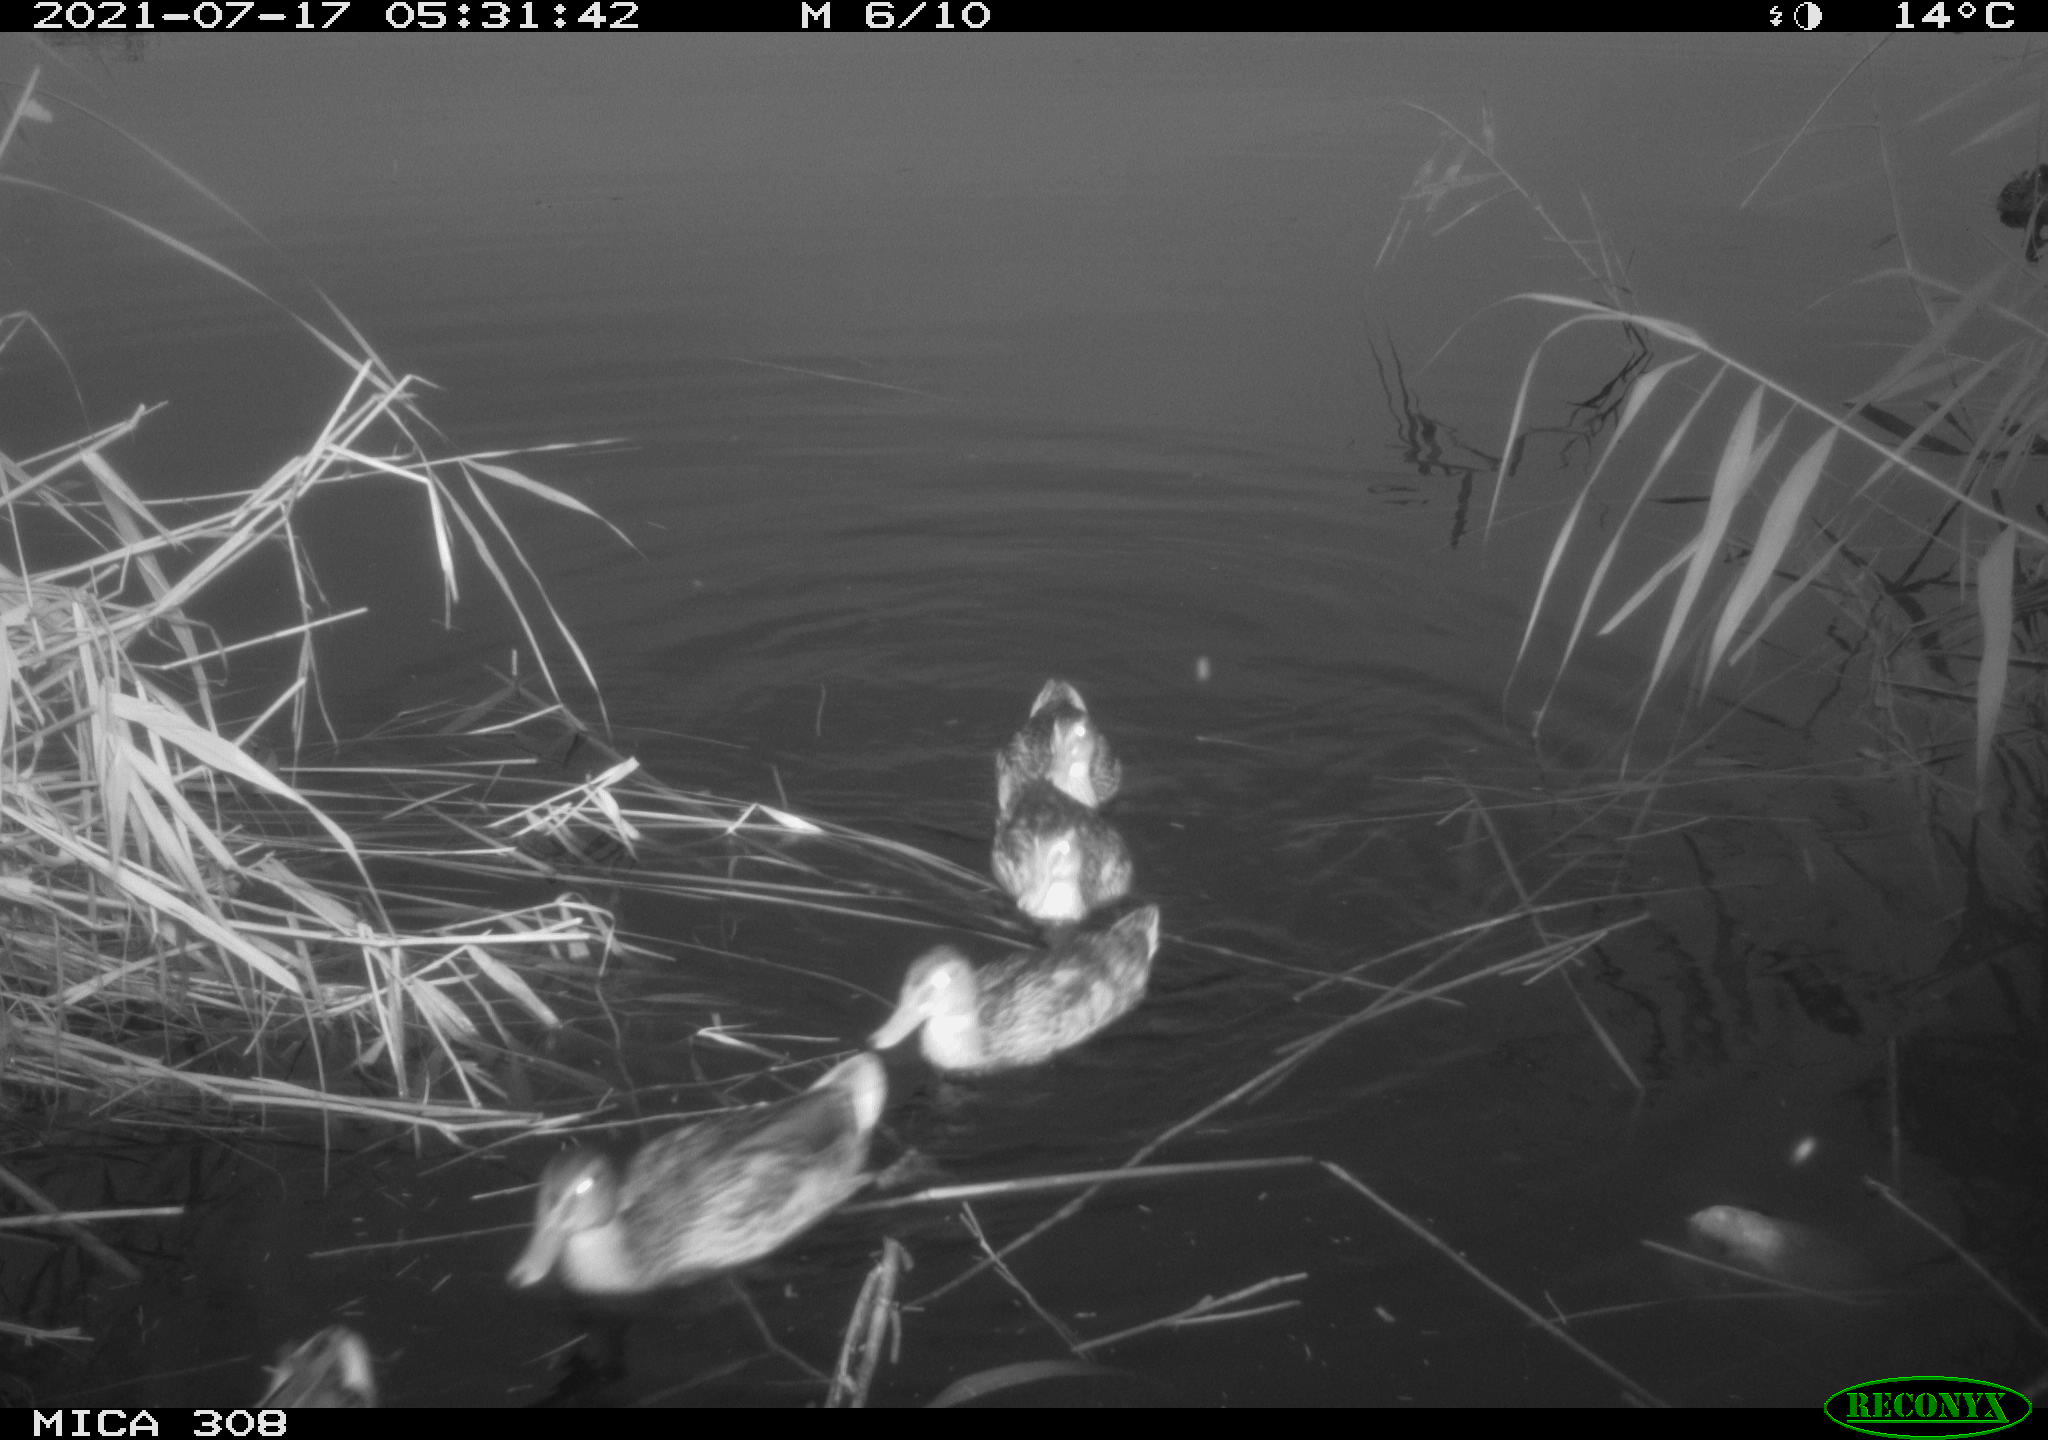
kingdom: Animalia
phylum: Chordata
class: Aves
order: Anseriformes
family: Anatidae
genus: Anas
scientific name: Anas platyrhynchos
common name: Mallard
